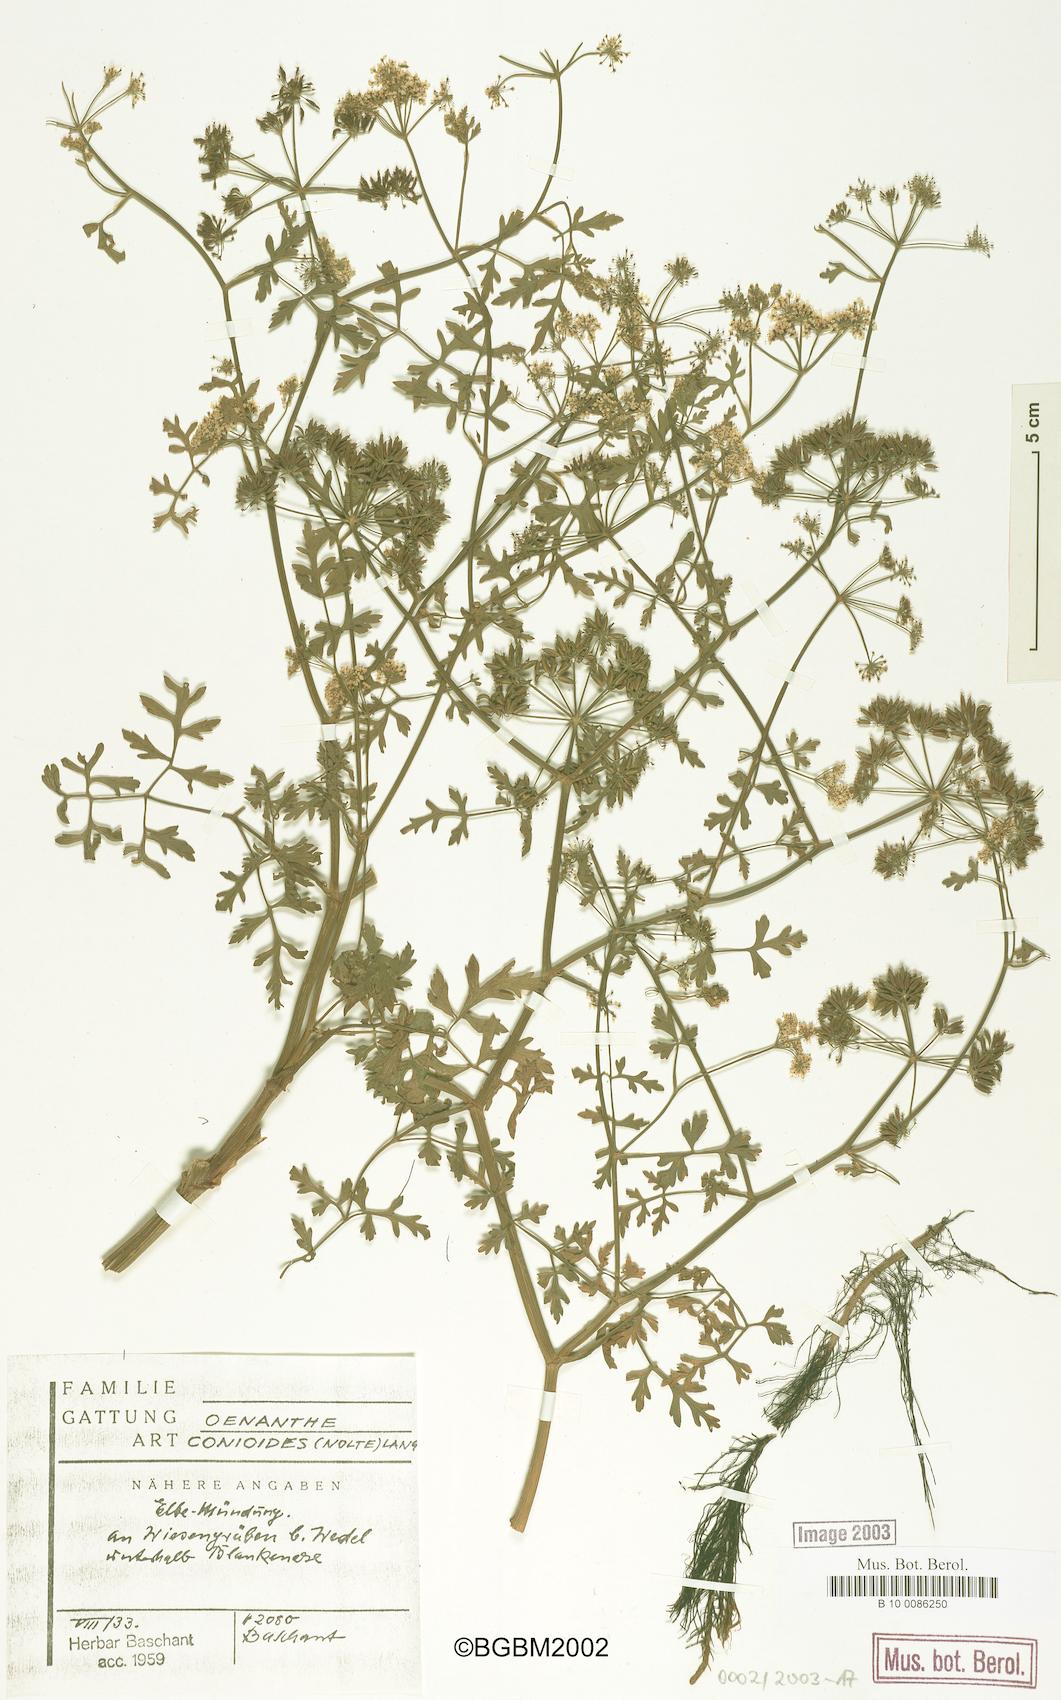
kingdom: Plantae
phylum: Tracheophyta
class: Magnoliopsida
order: Apiales
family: Apiaceae
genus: Oenanthe
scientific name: Oenanthe conioides
